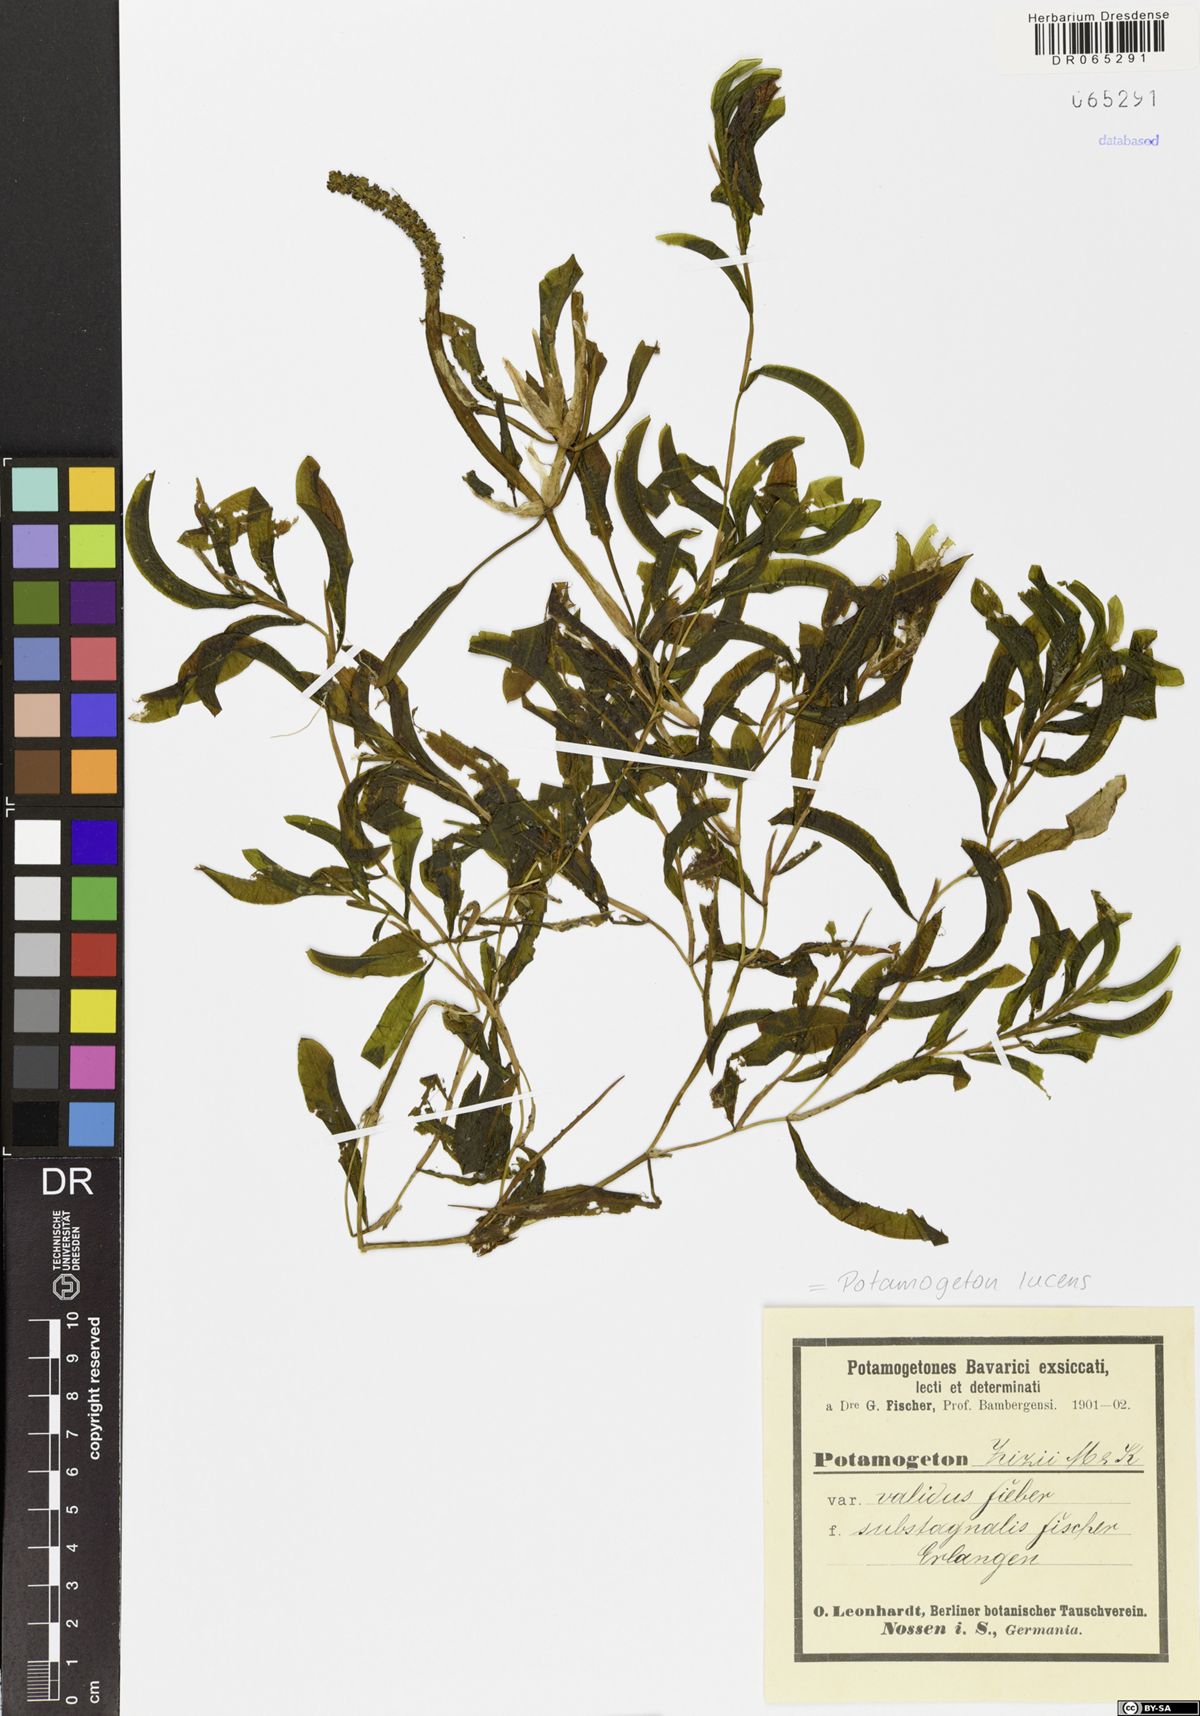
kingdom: Plantae
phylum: Tracheophyta
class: Liliopsida
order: Alismatales
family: Potamogetonaceae
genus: Potamogeton
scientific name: Potamogeton lucens
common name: Shining pondweed
